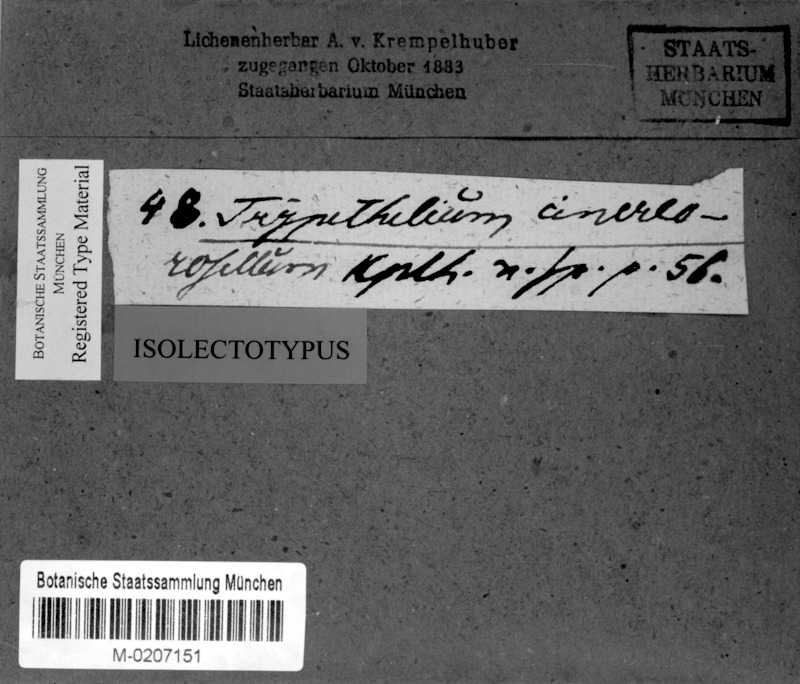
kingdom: Fungi
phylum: Ascomycota
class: Dothideomycetes
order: Trypetheliales
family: Trypetheliaceae
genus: Astrothelium
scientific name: Astrothelium cinereorosellum
